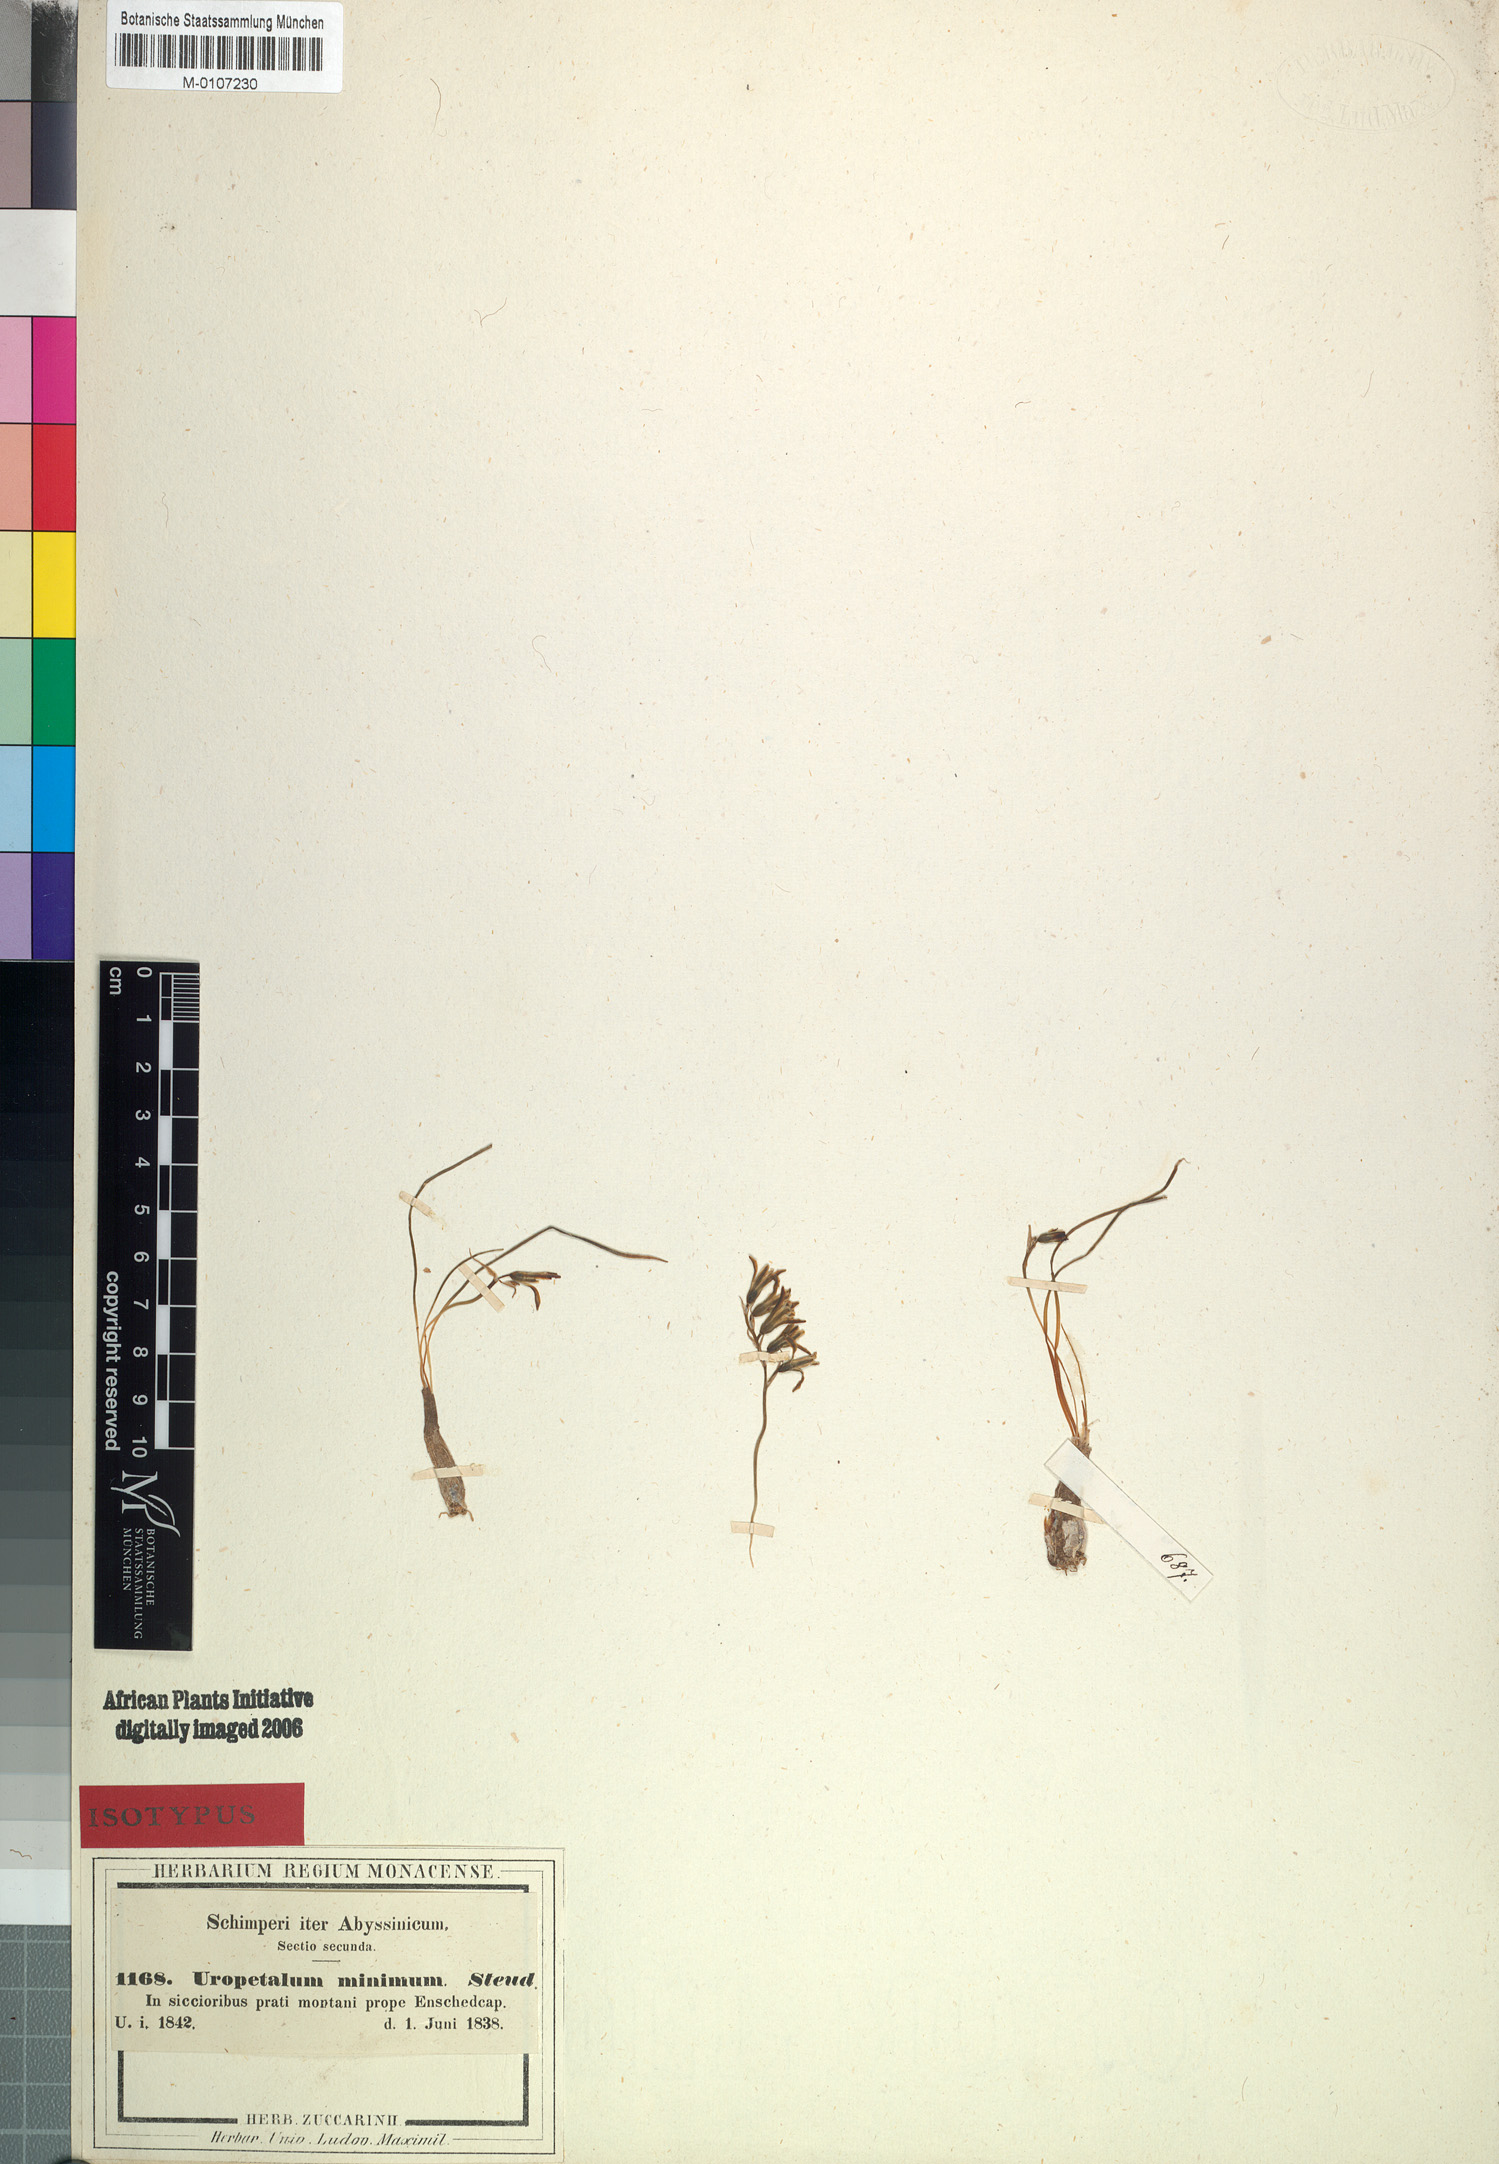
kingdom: Plantae
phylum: Tracheophyta
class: Liliopsida
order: Asparagales
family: Asparagaceae
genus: Dipcadi
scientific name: Dipcadi minimum
